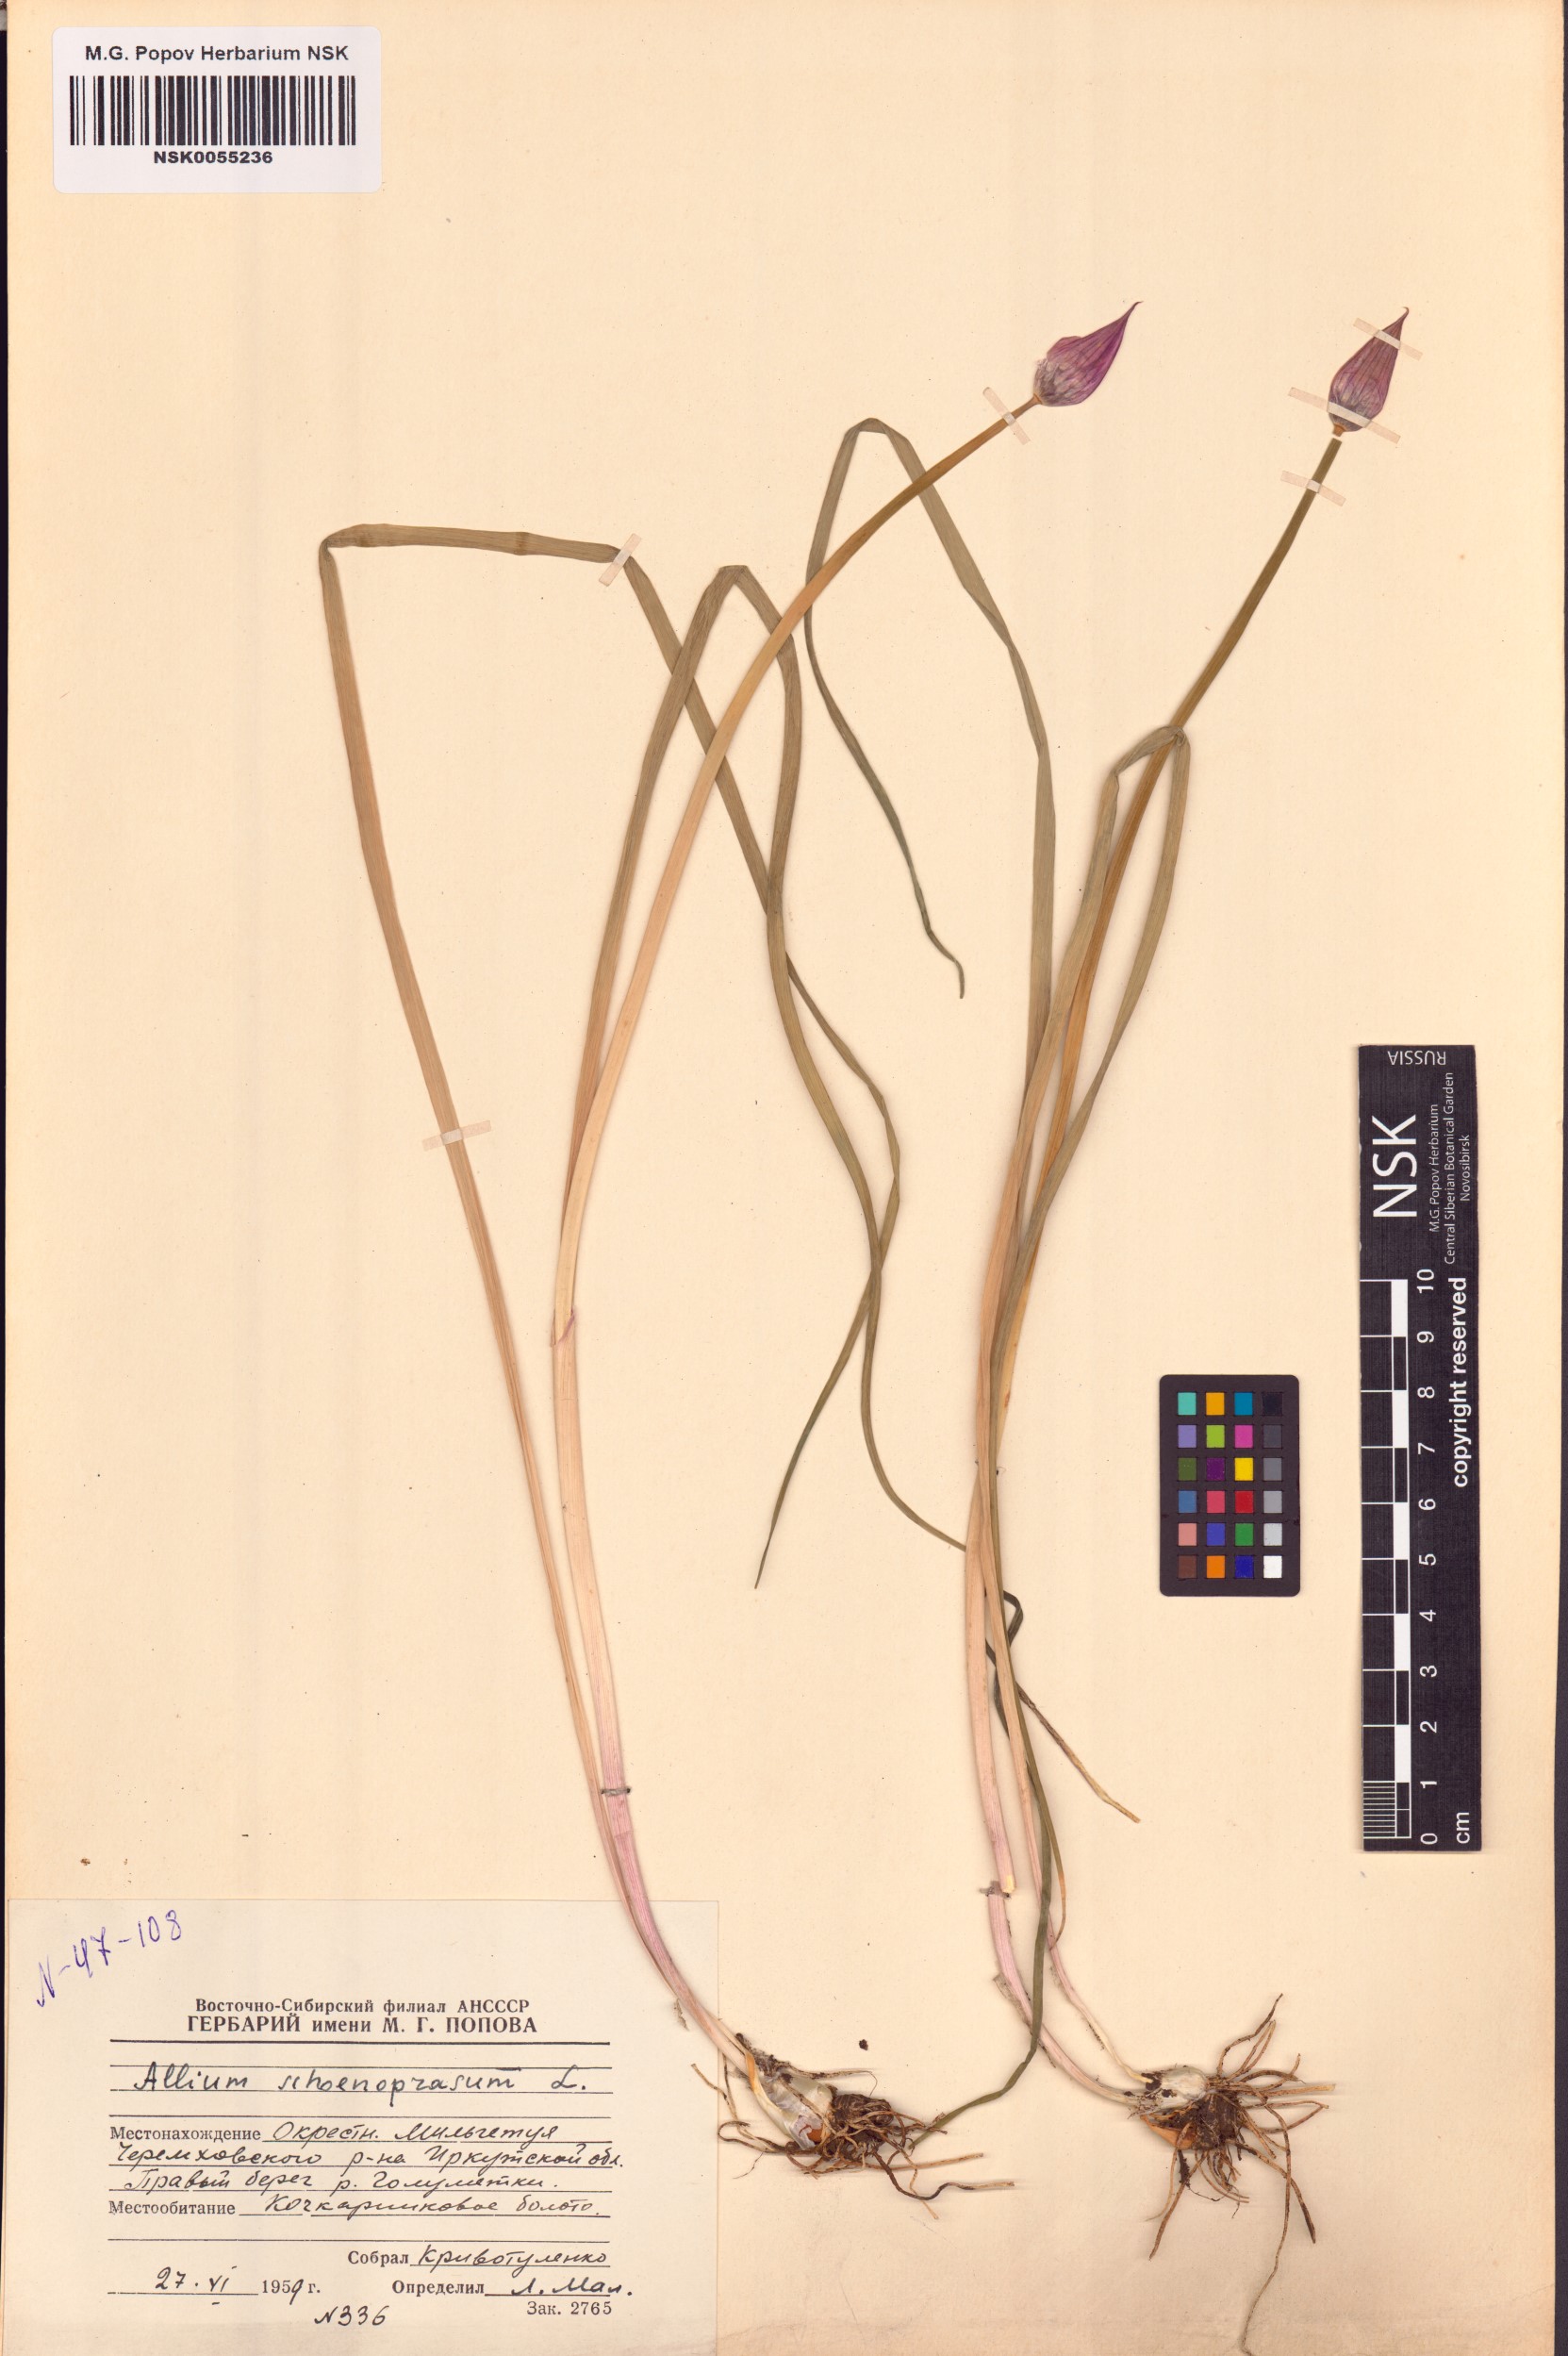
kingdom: Plantae
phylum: Tracheophyta
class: Liliopsida
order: Asparagales
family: Amaryllidaceae
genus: Allium
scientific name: Allium schoenoprasum
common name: Chives
